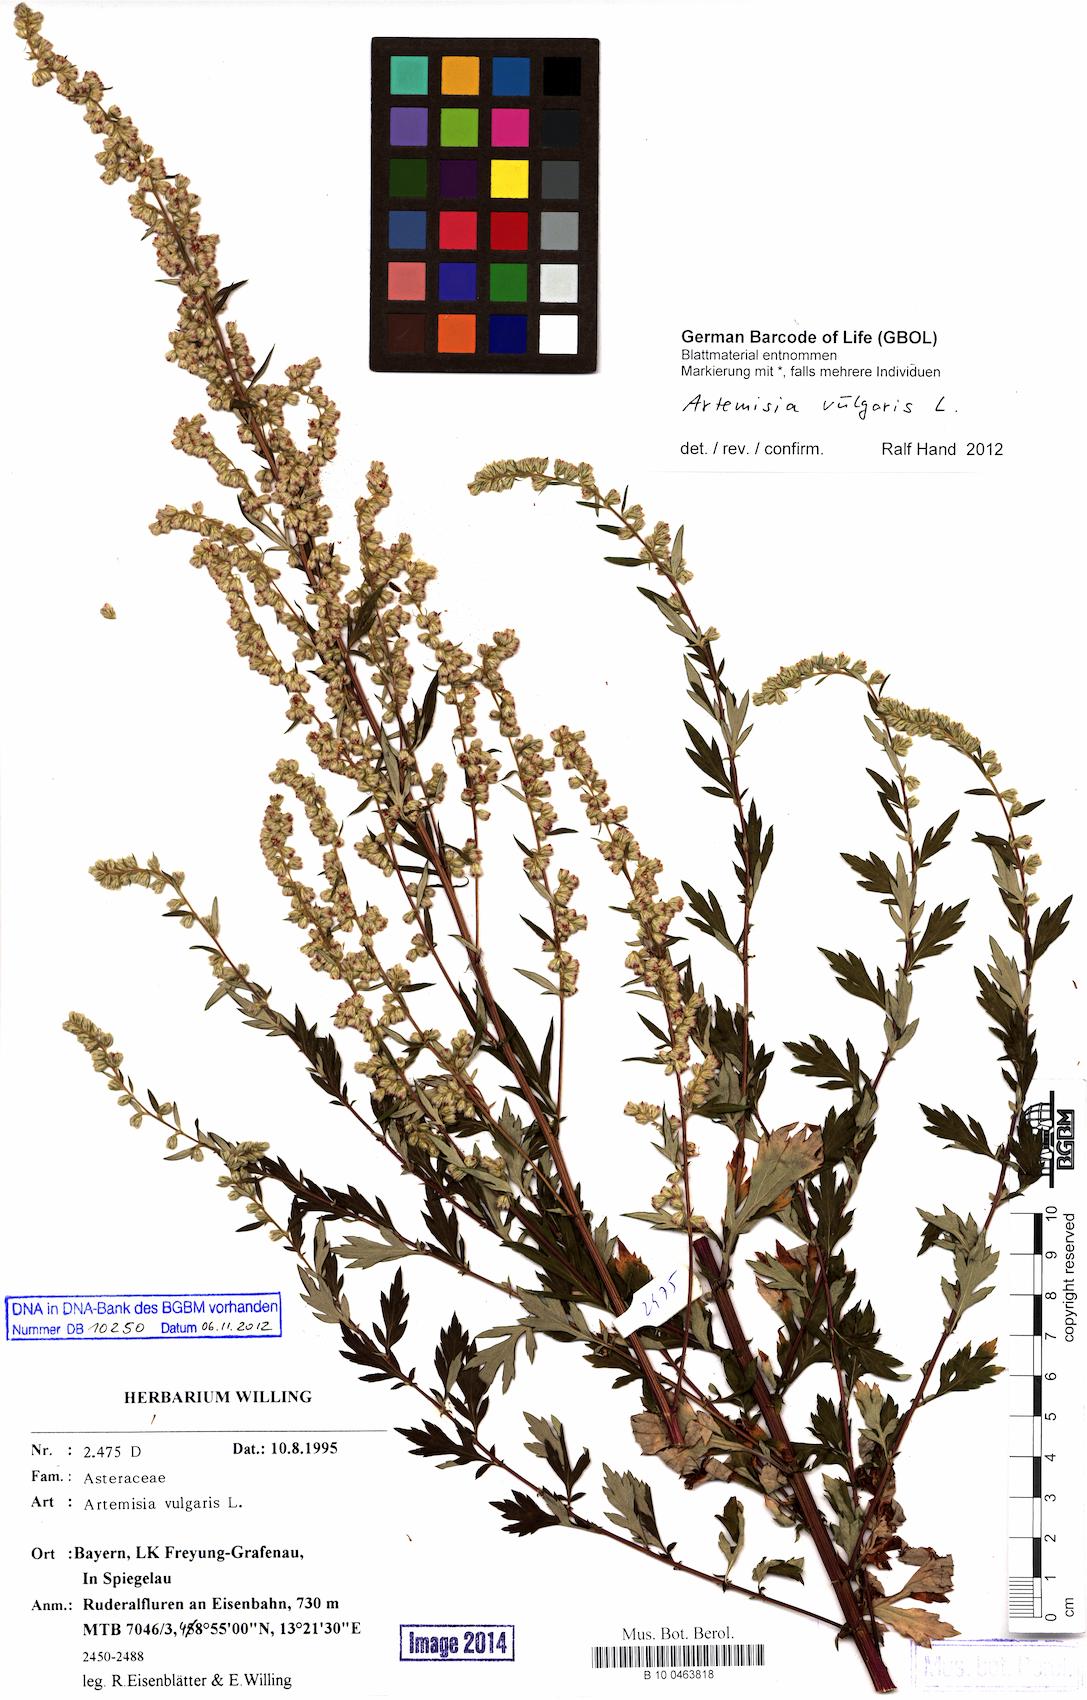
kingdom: Plantae
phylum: Tracheophyta
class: Magnoliopsida
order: Asterales
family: Asteraceae
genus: Artemisia
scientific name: Artemisia vulgaris
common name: Mugwort
